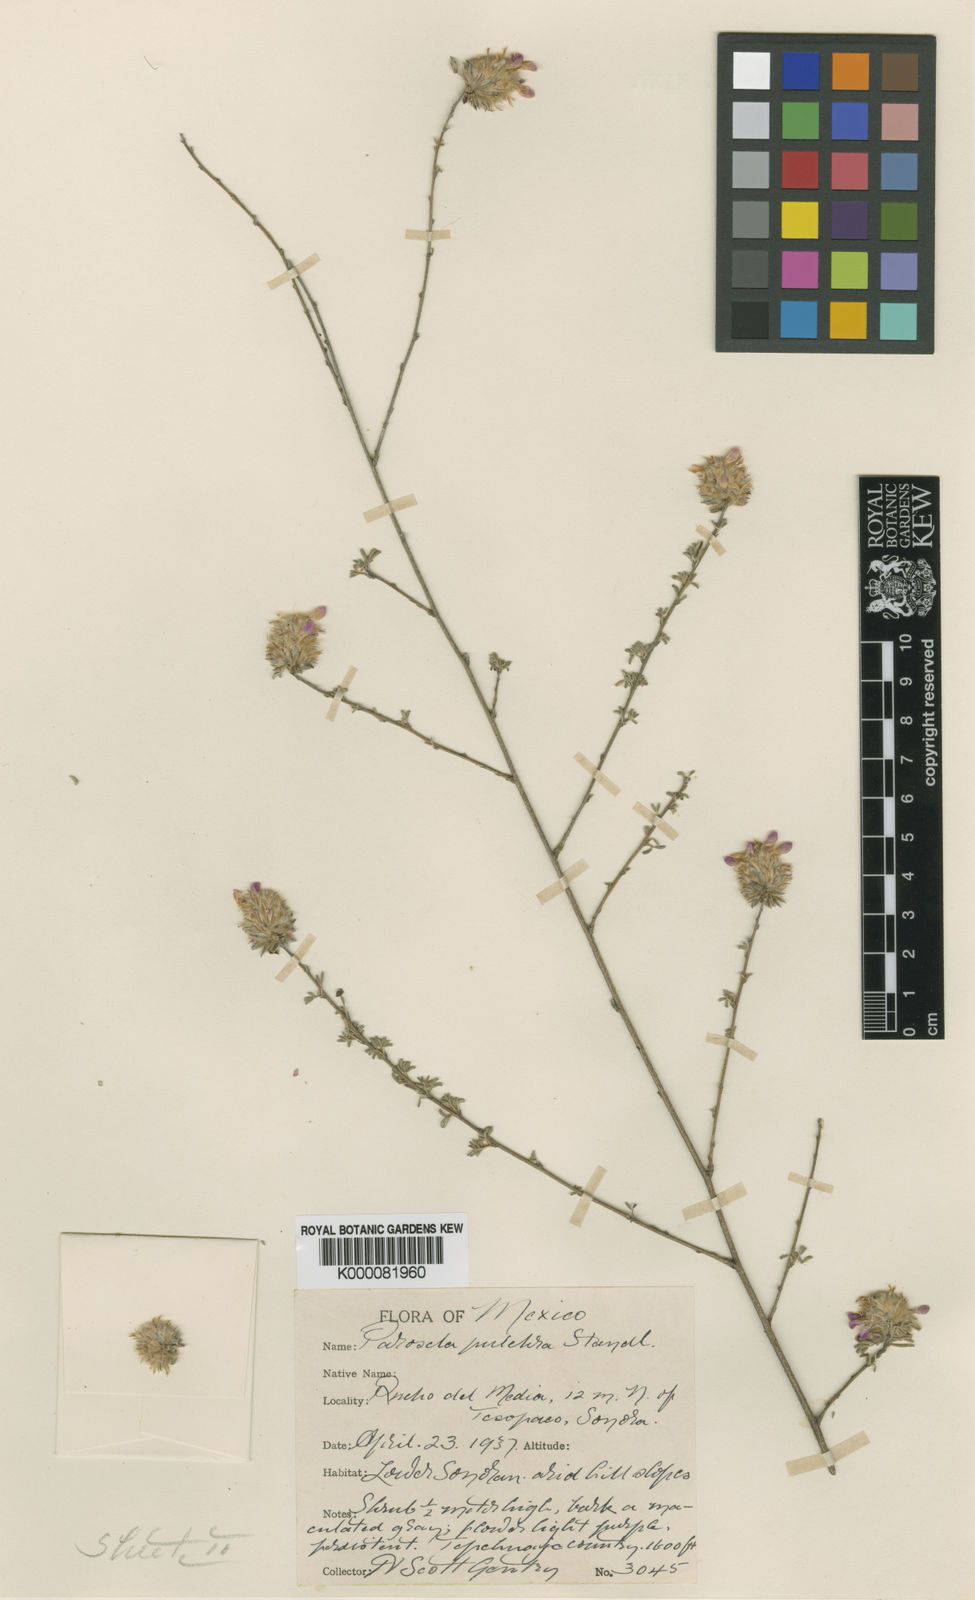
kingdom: Plantae
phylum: Tracheophyta
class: Magnoliopsida
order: Fabales
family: Fabaceae
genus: Dalea
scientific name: Dalea
